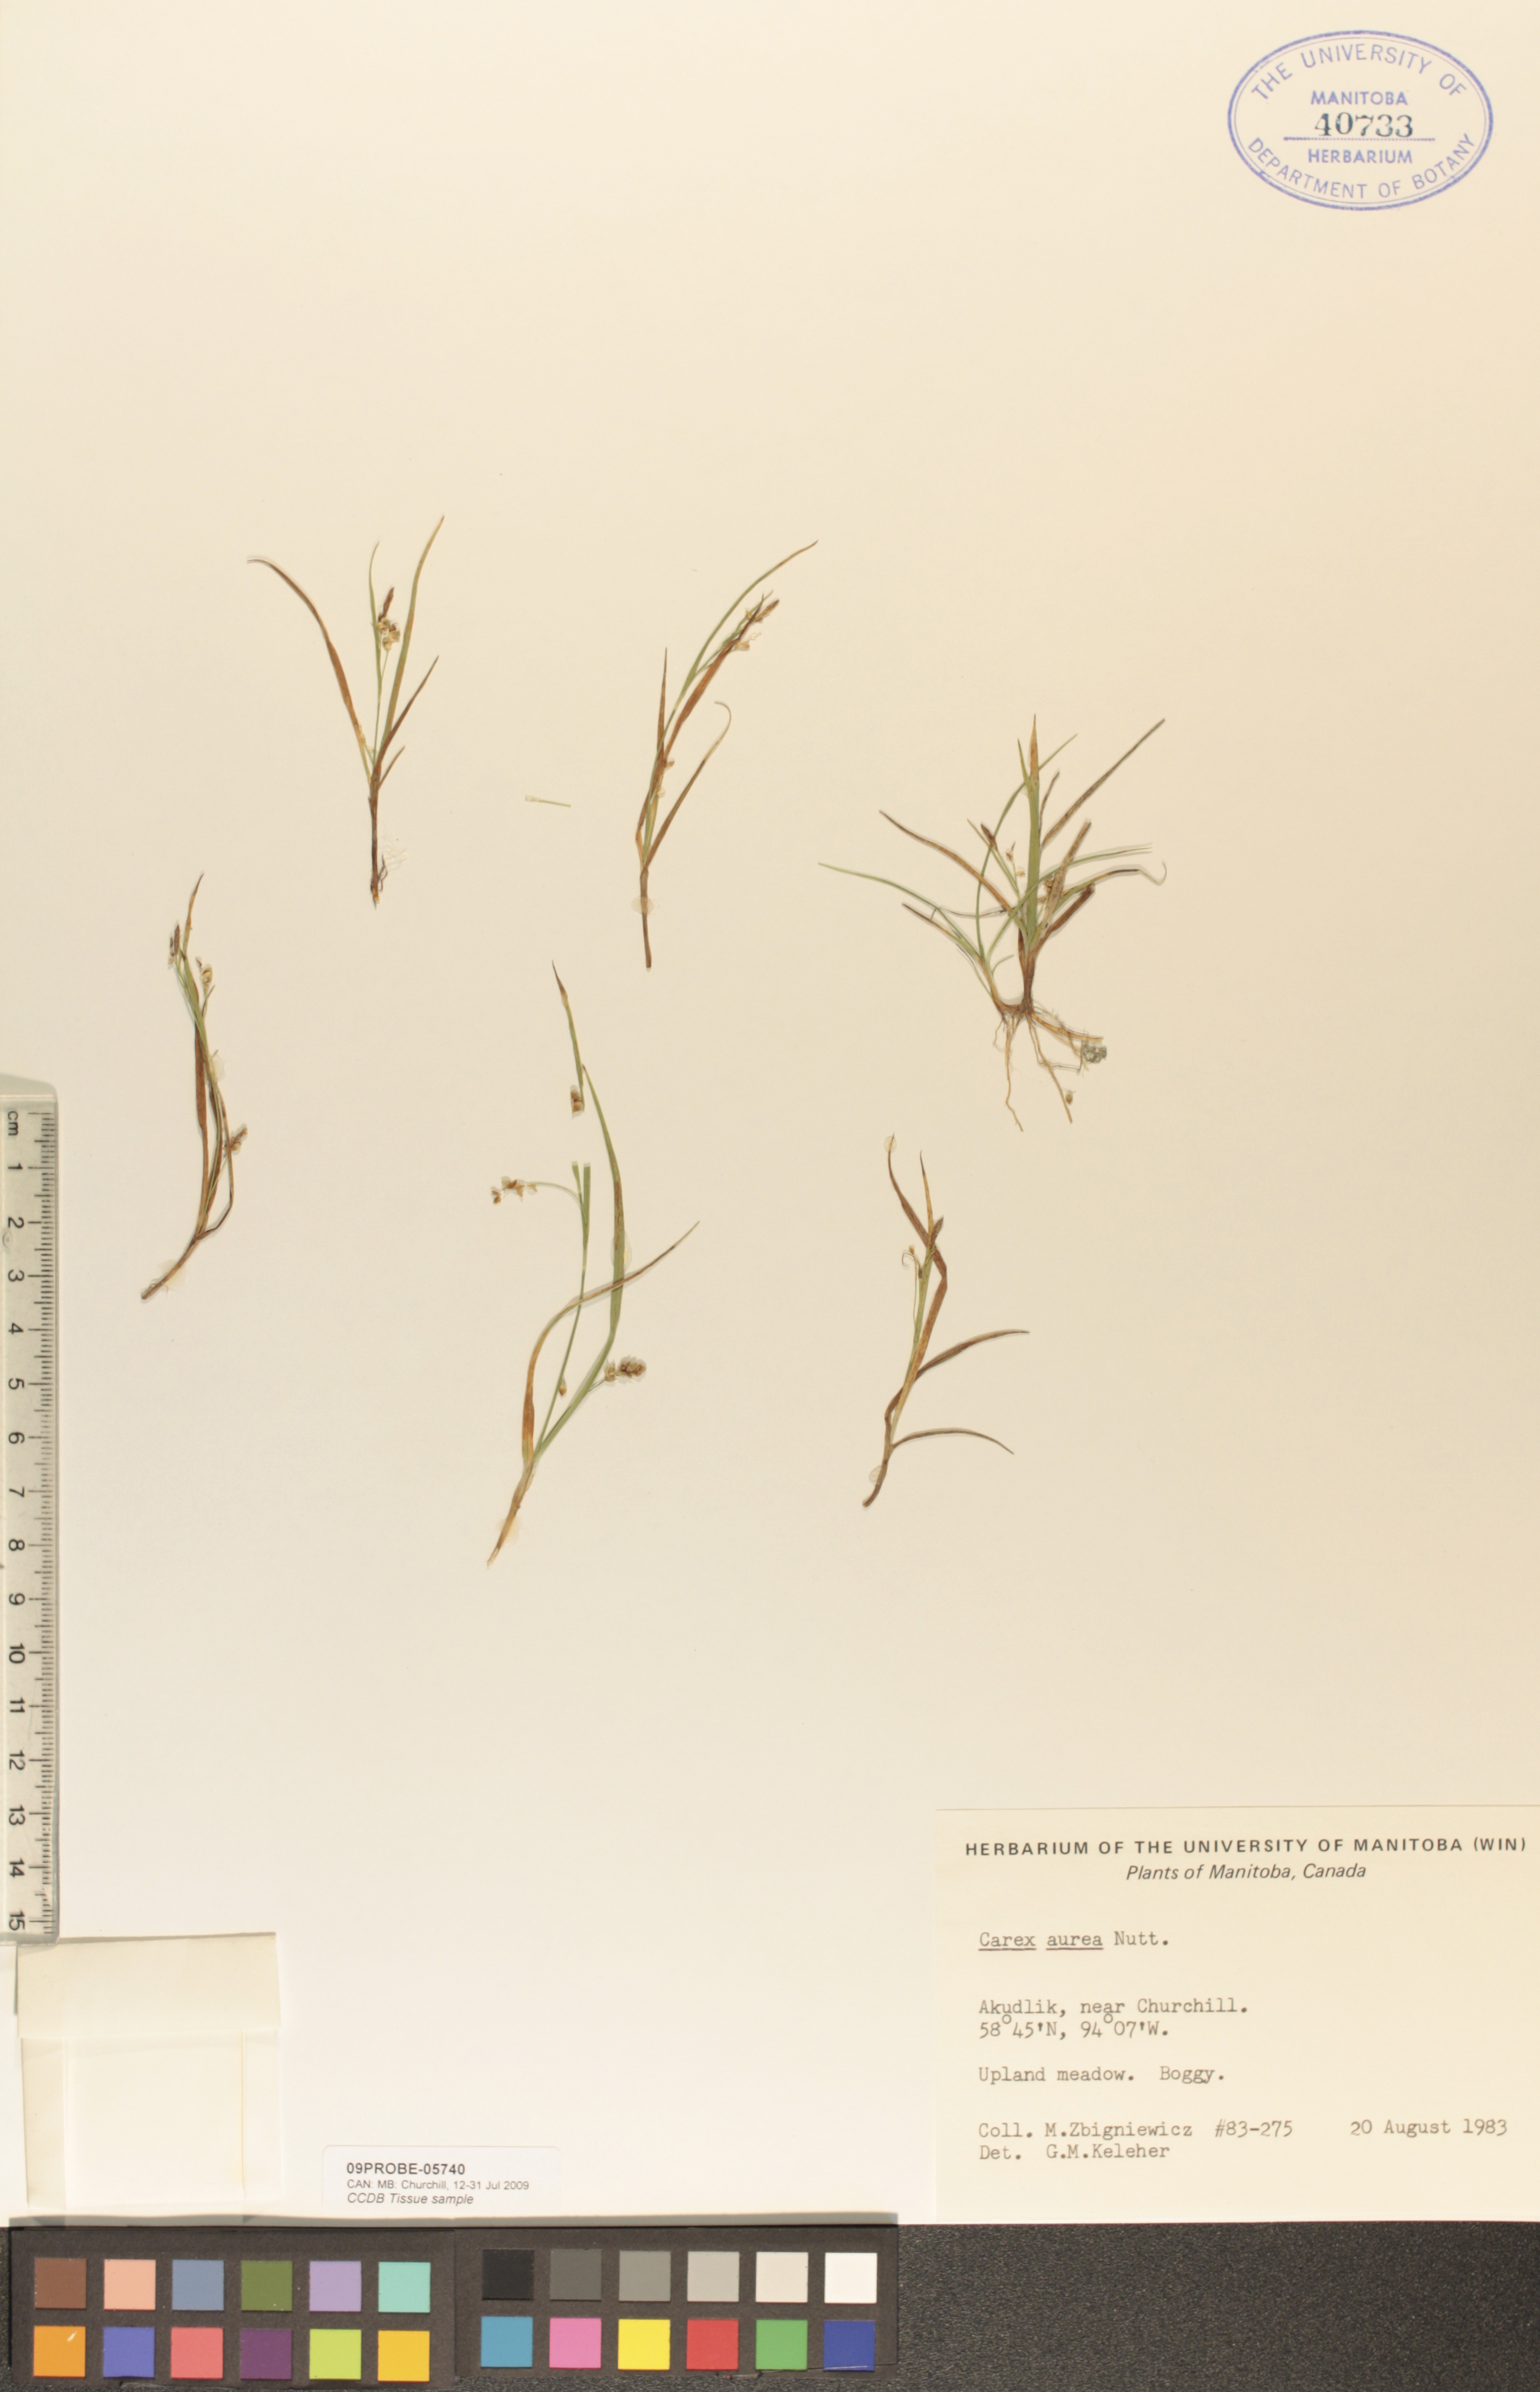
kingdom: Plantae
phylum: Tracheophyta
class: Liliopsida
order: Poales
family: Cyperaceae
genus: Carex
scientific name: Carex aurea
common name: Golden sedge
